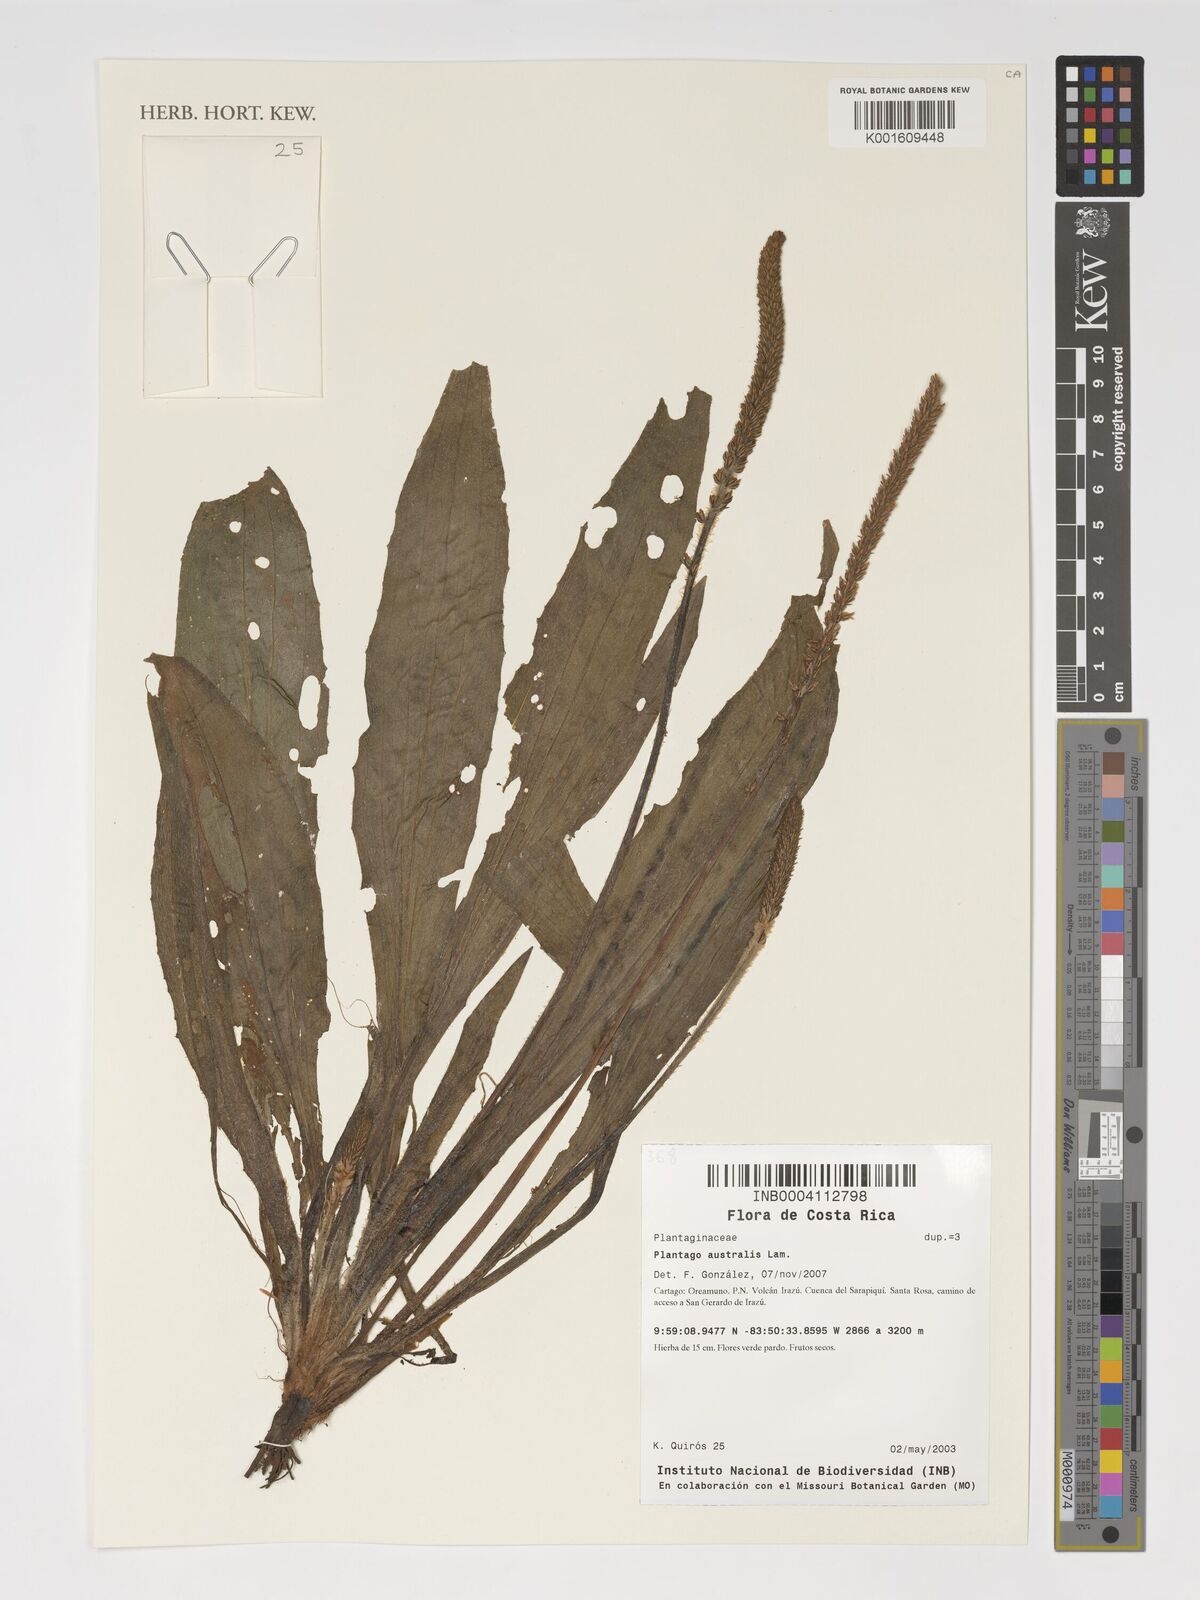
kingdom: Plantae
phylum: Tracheophyta
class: Magnoliopsida
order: Lamiales
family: Plantaginaceae
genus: Plantago
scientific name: Plantago australis
